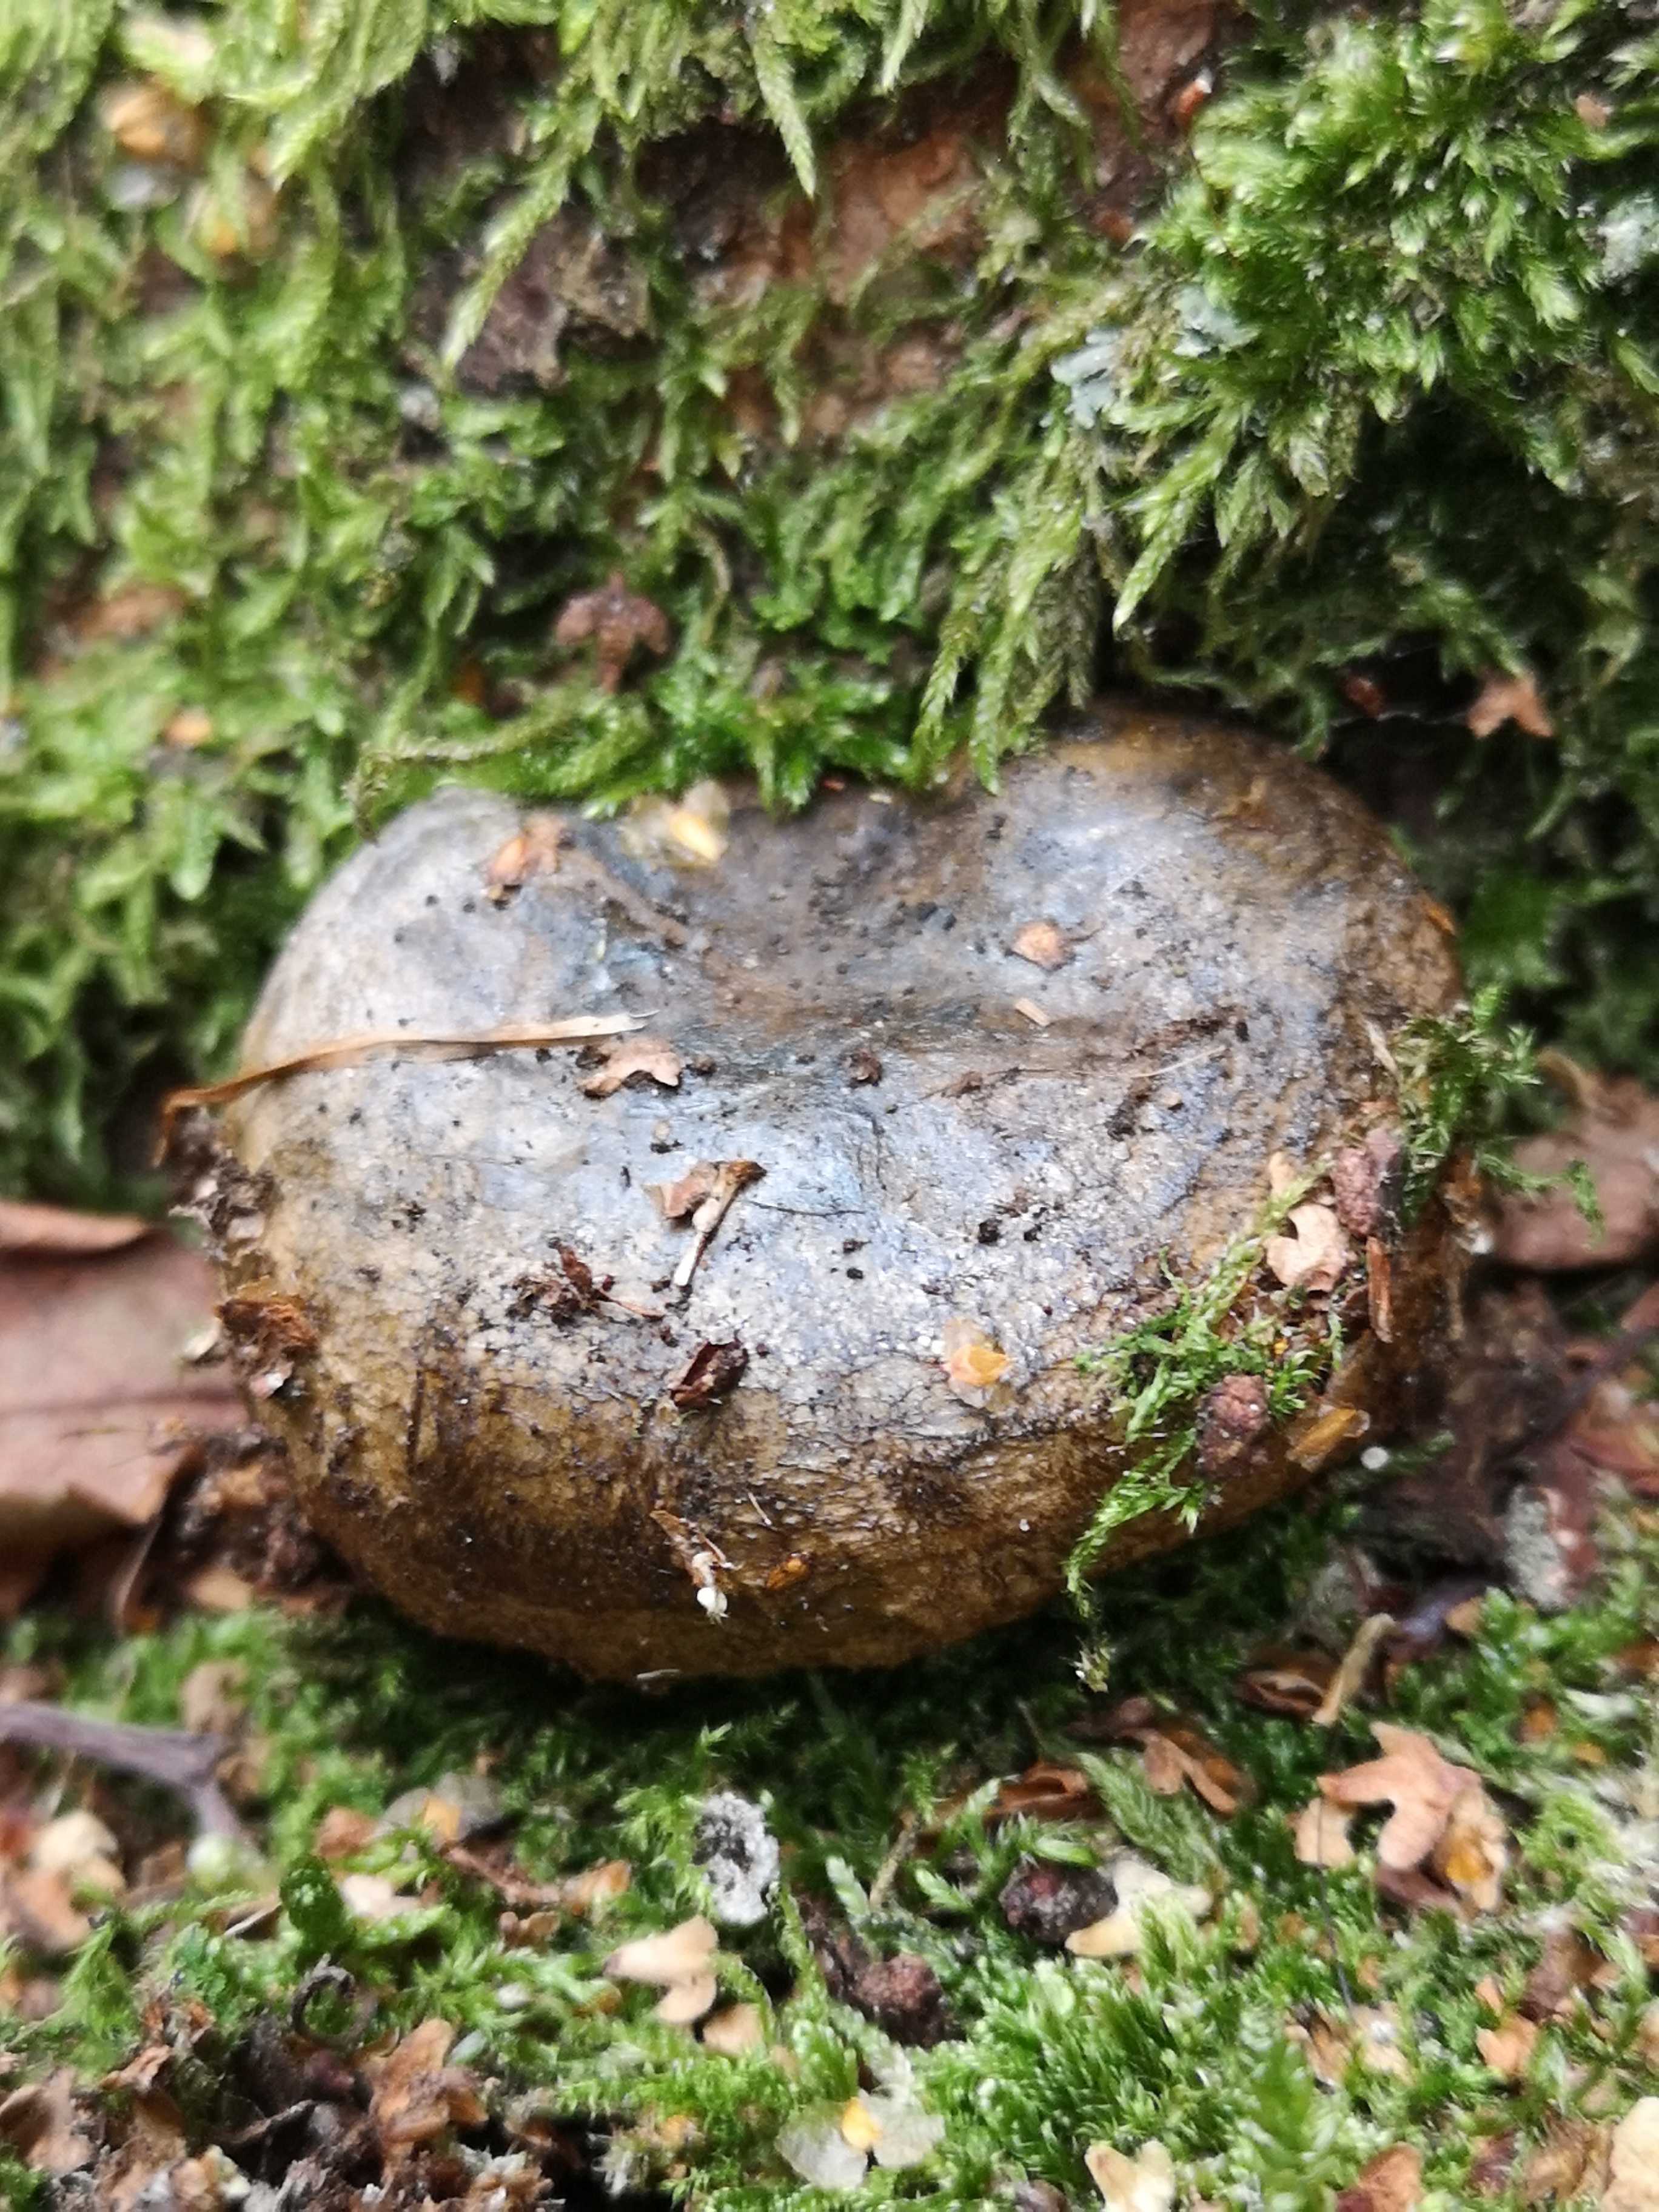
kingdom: Fungi
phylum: Basidiomycota
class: Agaricomycetes
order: Russulales
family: Russulaceae
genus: Lactarius
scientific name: Lactarius necator
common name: manddraber-mælkehat
